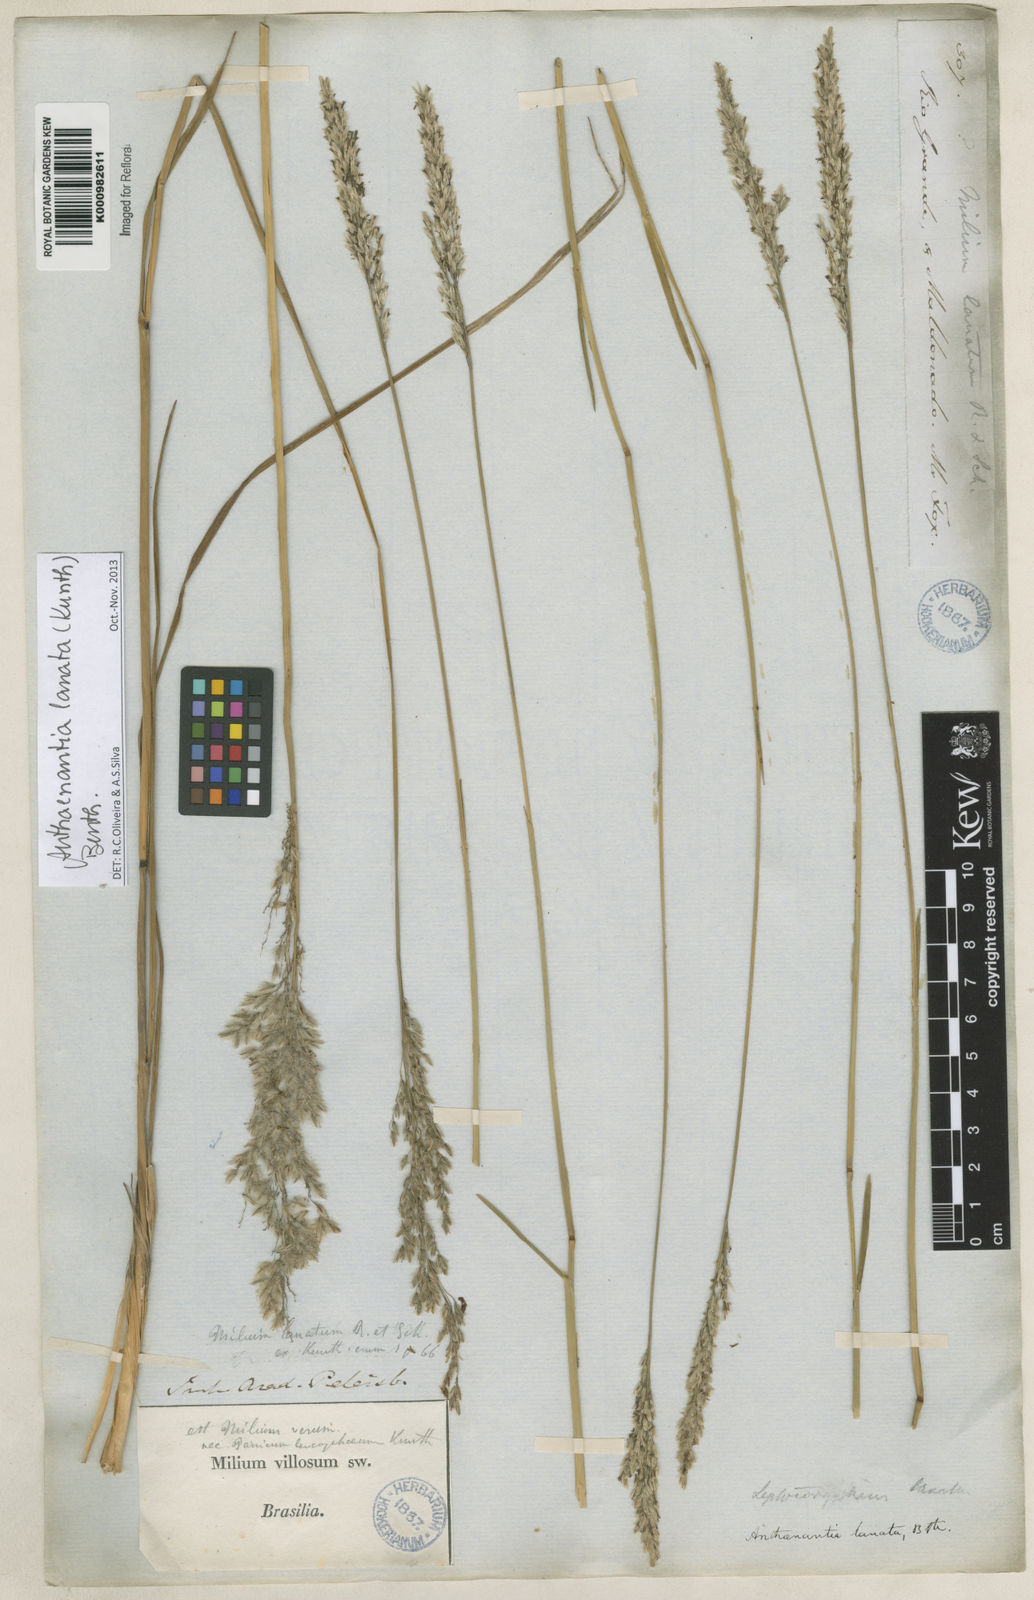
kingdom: Plantae
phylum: Tracheophyta
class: Liliopsida
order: Poales
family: Poaceae
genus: Anthenantia
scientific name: Anthenantia lanata
